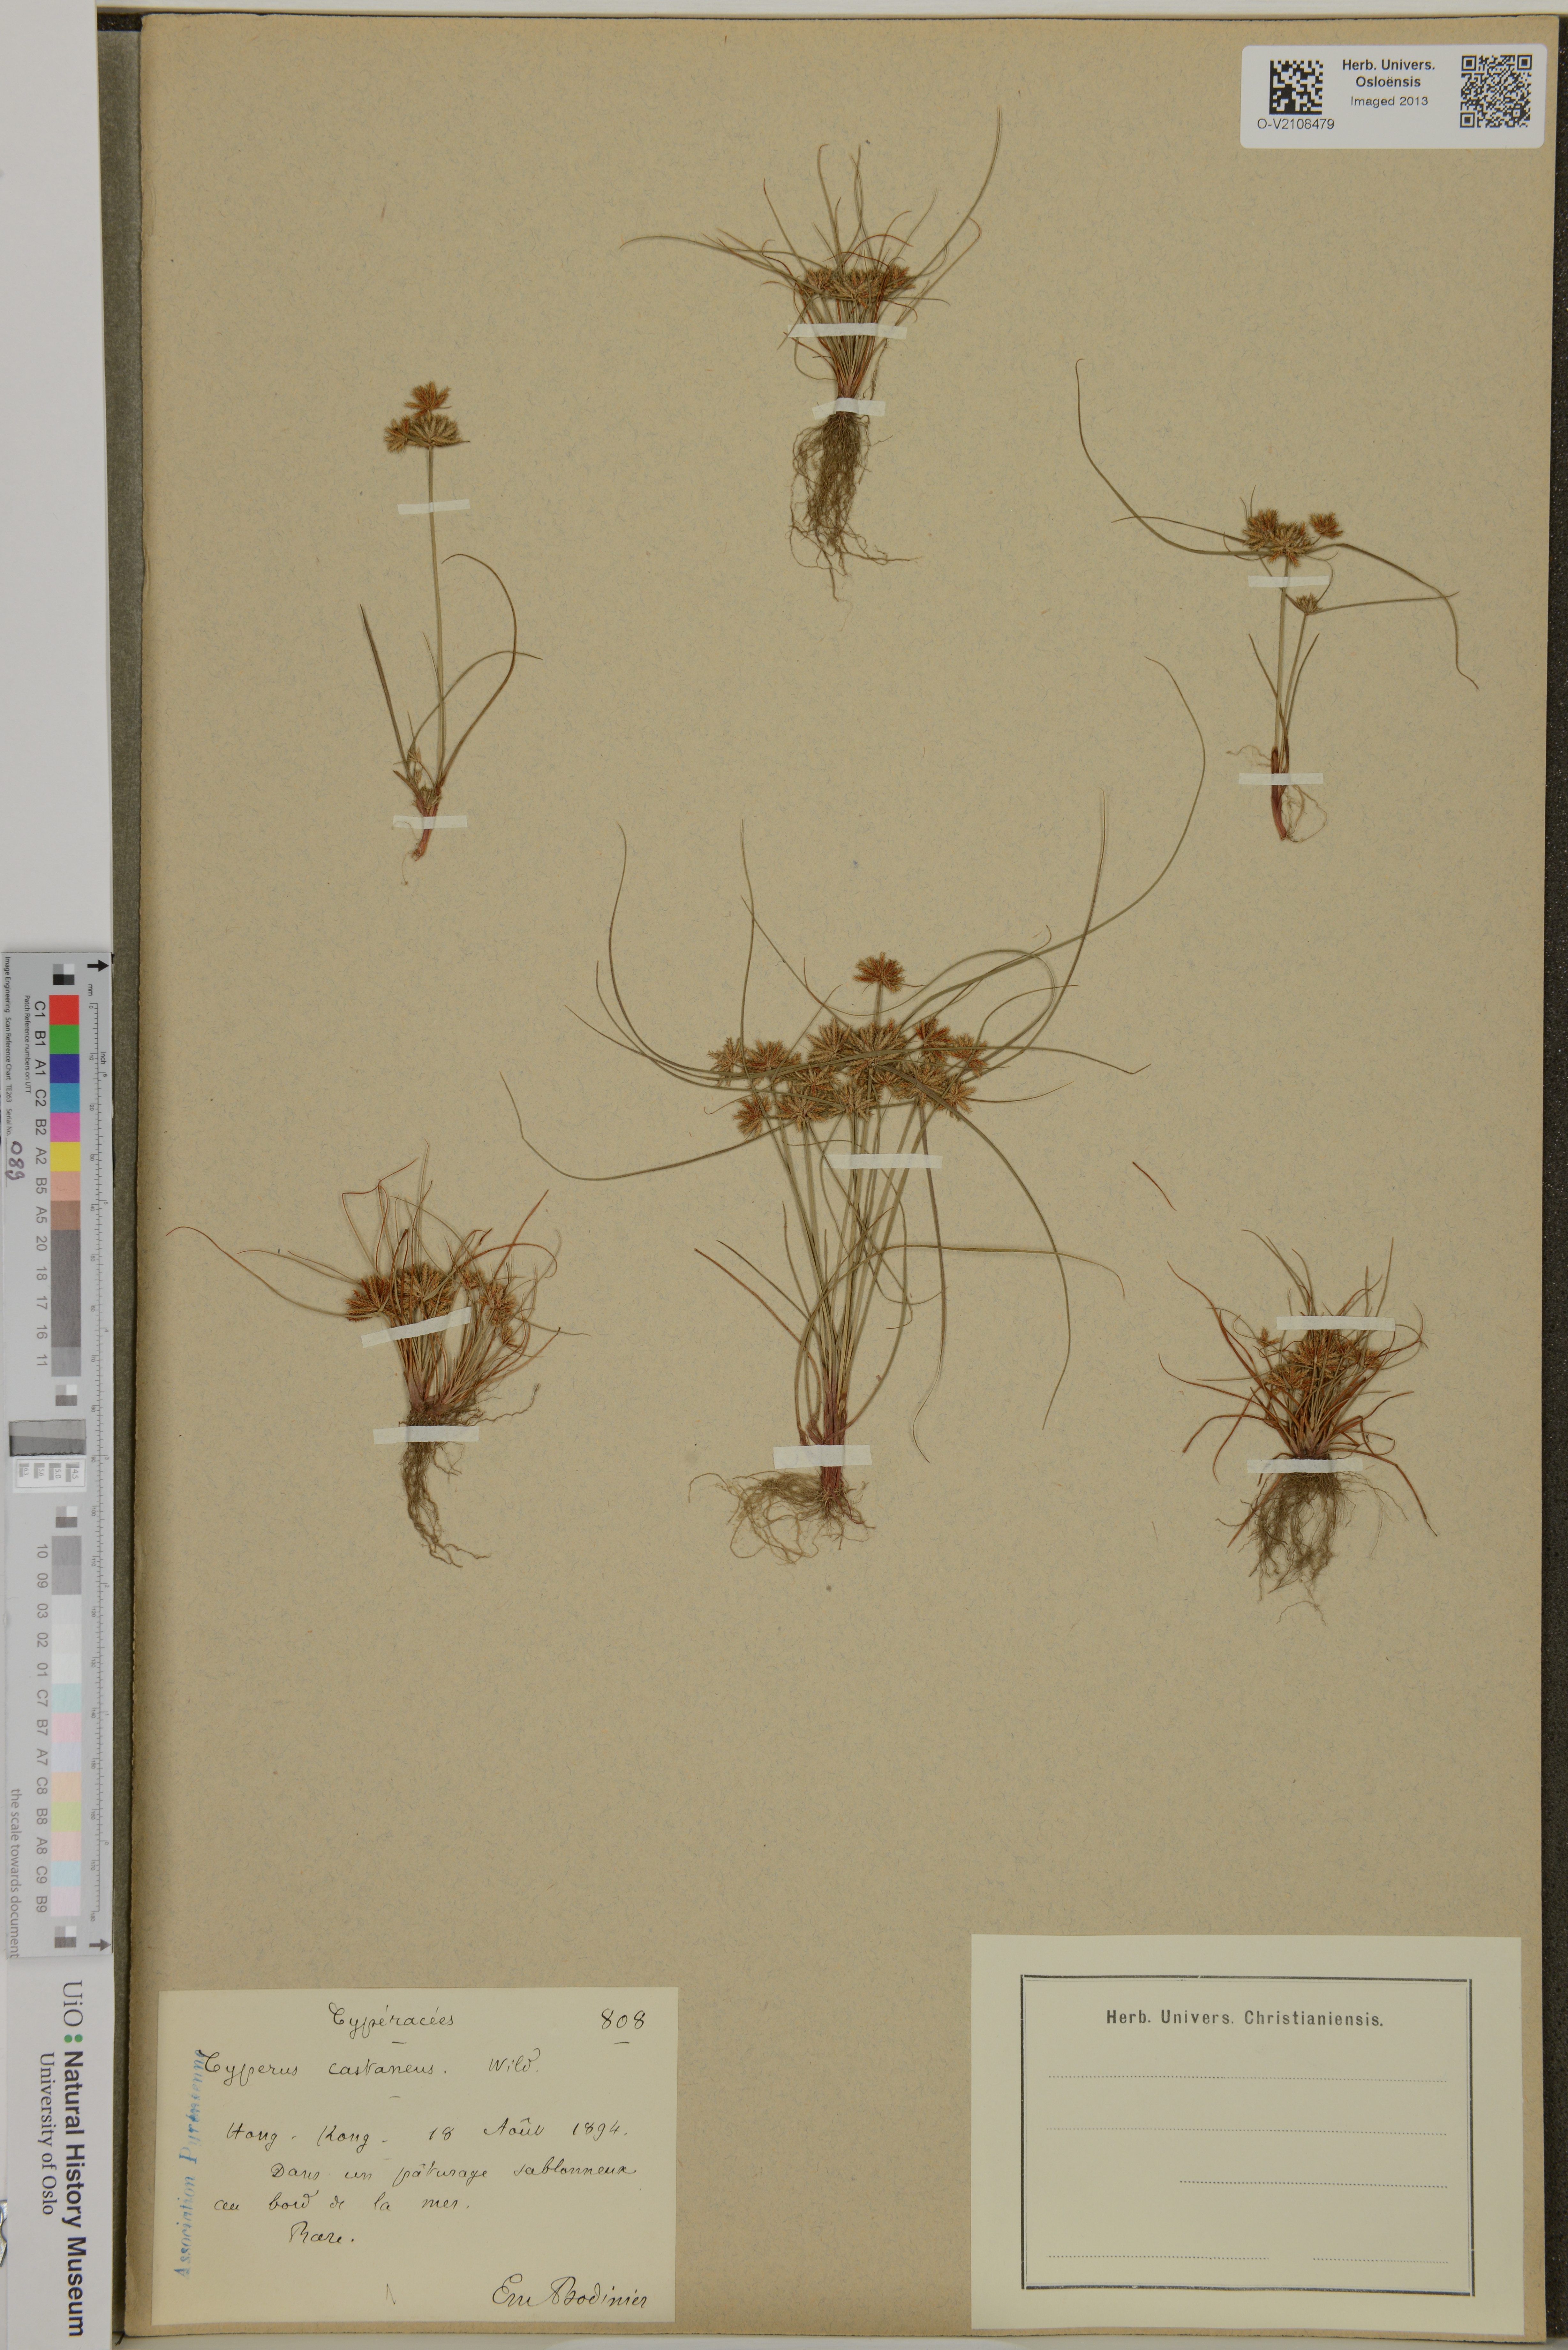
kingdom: Plantae
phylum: Tracheophyta
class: Liliopsida
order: Poales
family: Cyperaceae
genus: Cyperus
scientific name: Cyperus castaneus
